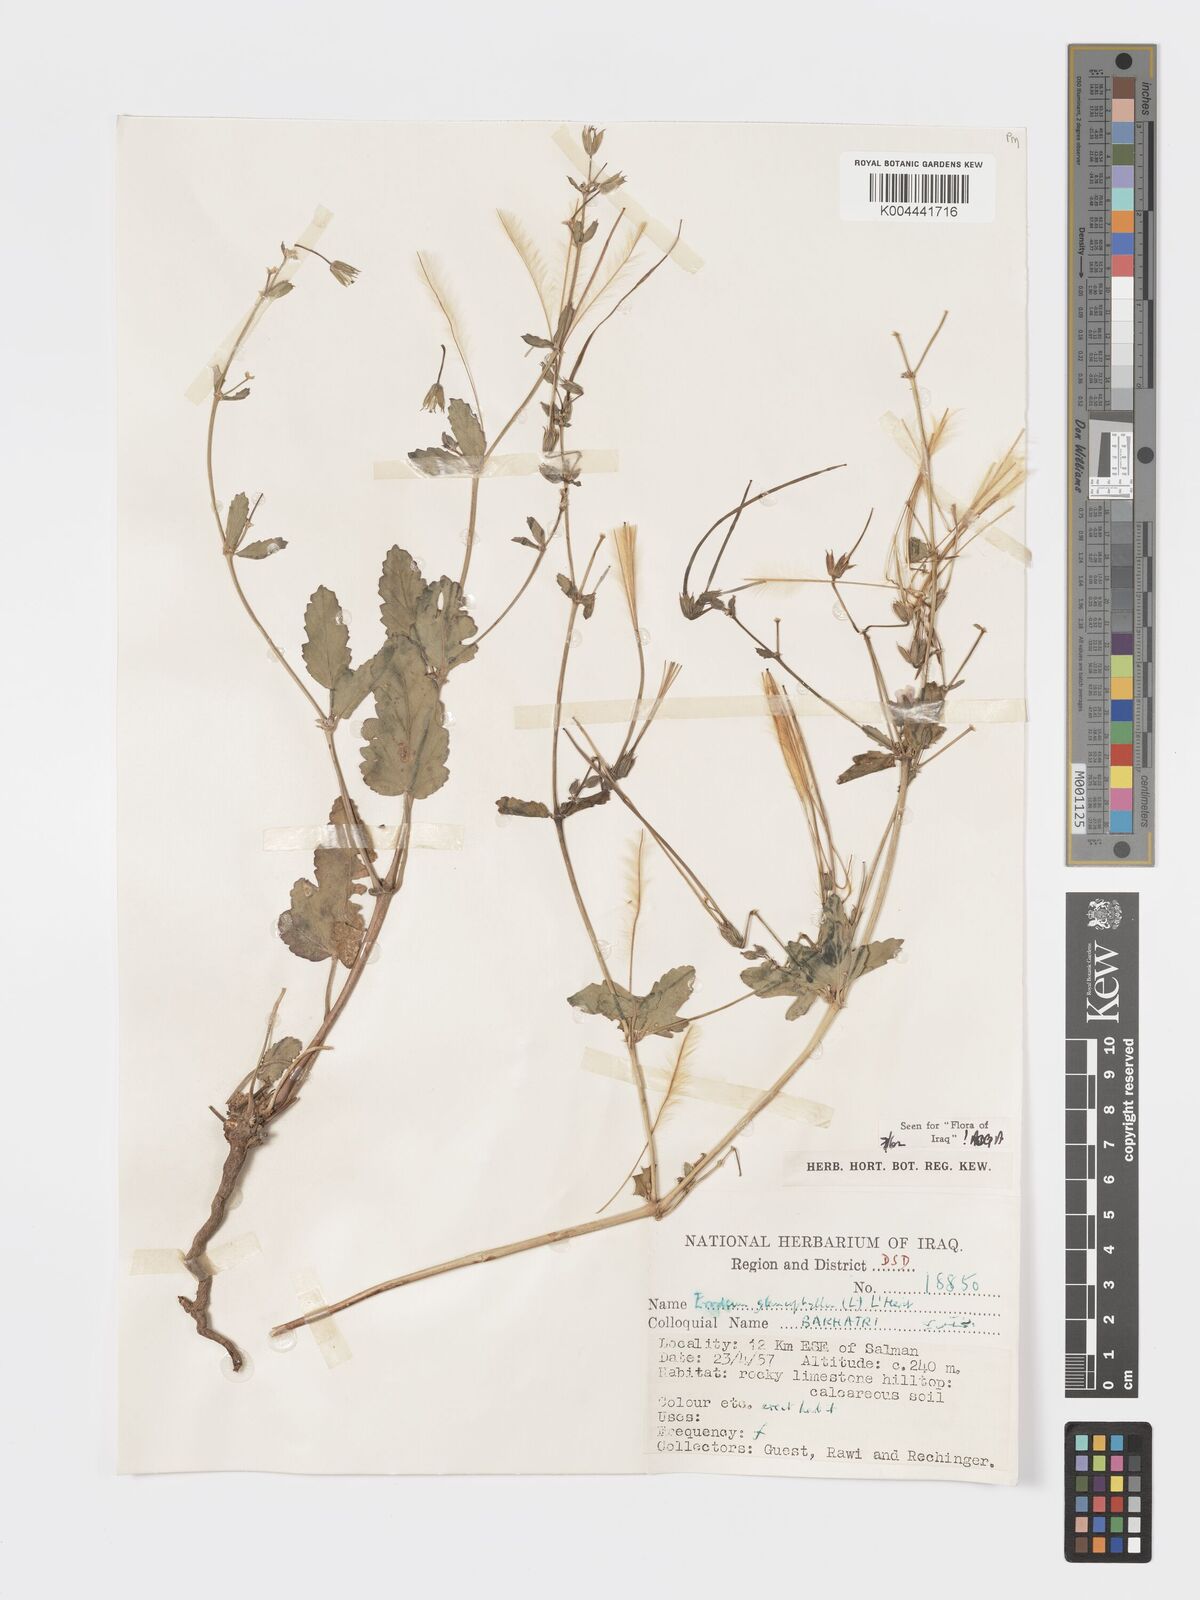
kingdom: Plantae
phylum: Tracheophyta
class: Magnoliopsida
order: Geraniales
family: Geraniaceae
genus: Erodium
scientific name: Erodium glaucophyllum
